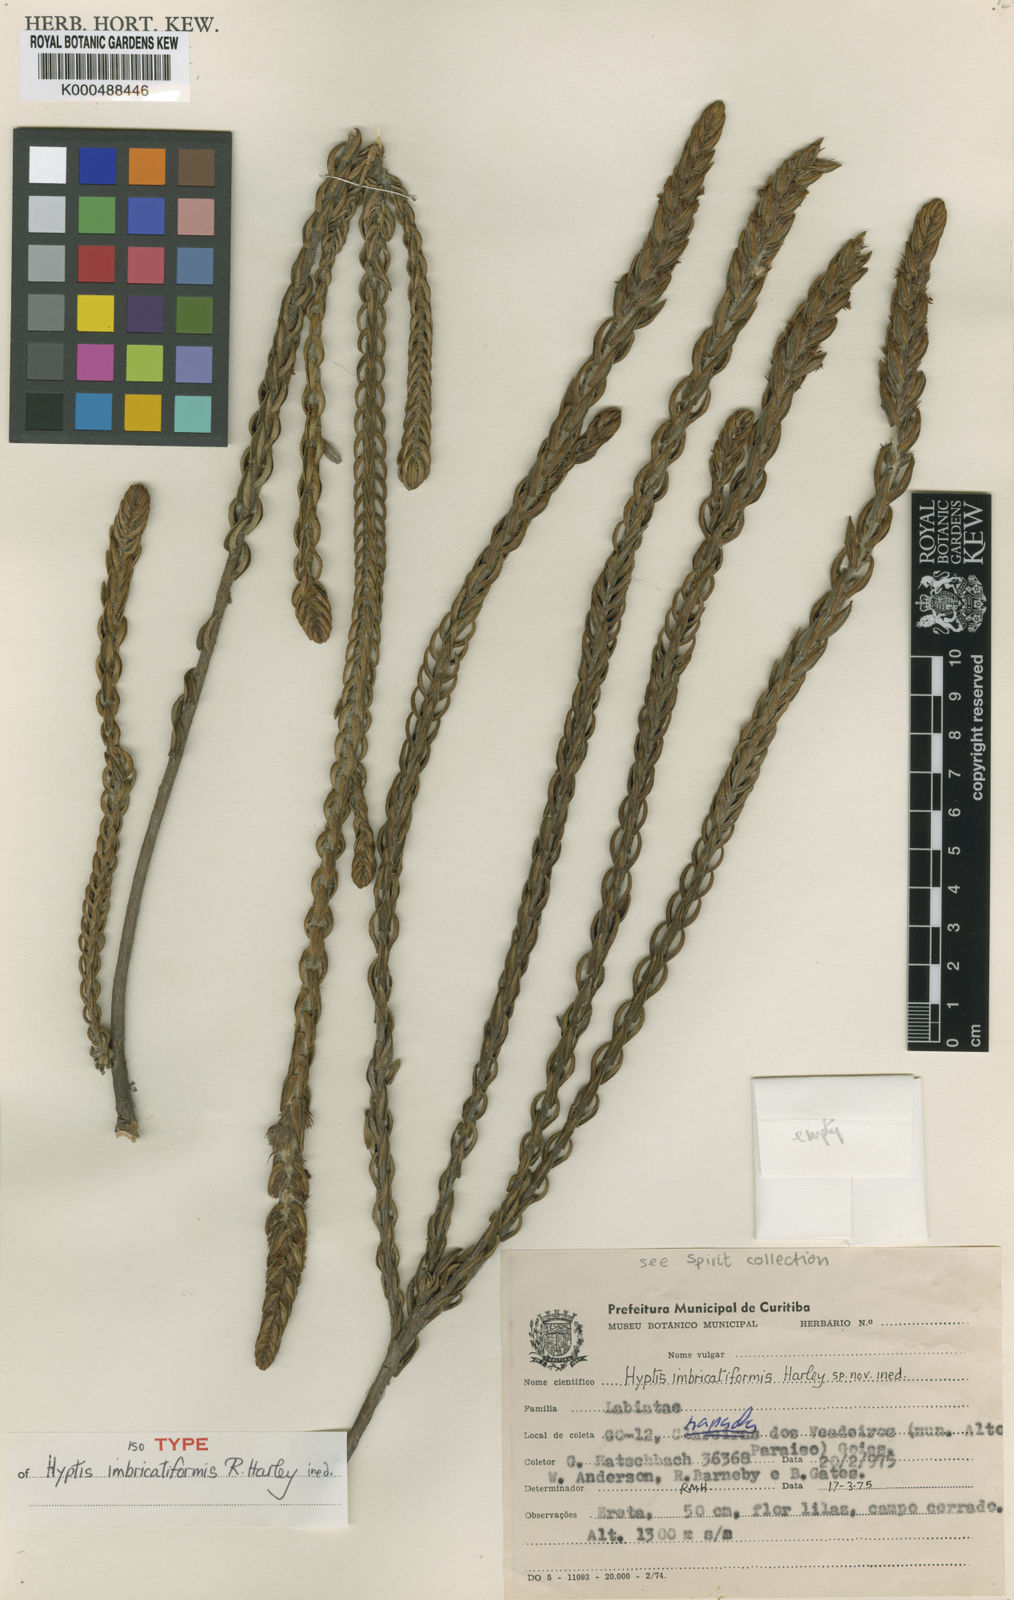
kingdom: Plantae
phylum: Tracheophyta
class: Magnoliopsida
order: Lamiales
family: Lamiaceae
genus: Hyptis
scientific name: Hyptis imbricatiformis
